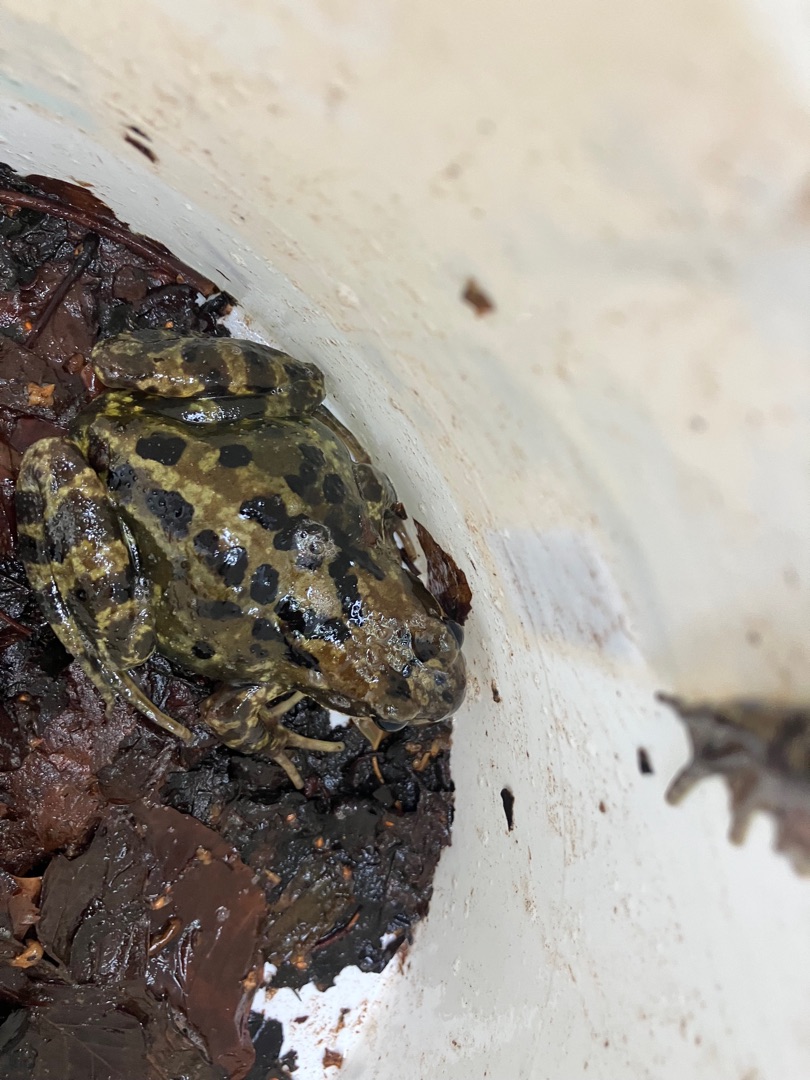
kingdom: Animalia
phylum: Chordata
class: Amphibia
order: Anura
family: Ranidae
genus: Rana
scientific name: Rana temporaria
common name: Butsnudet frø
